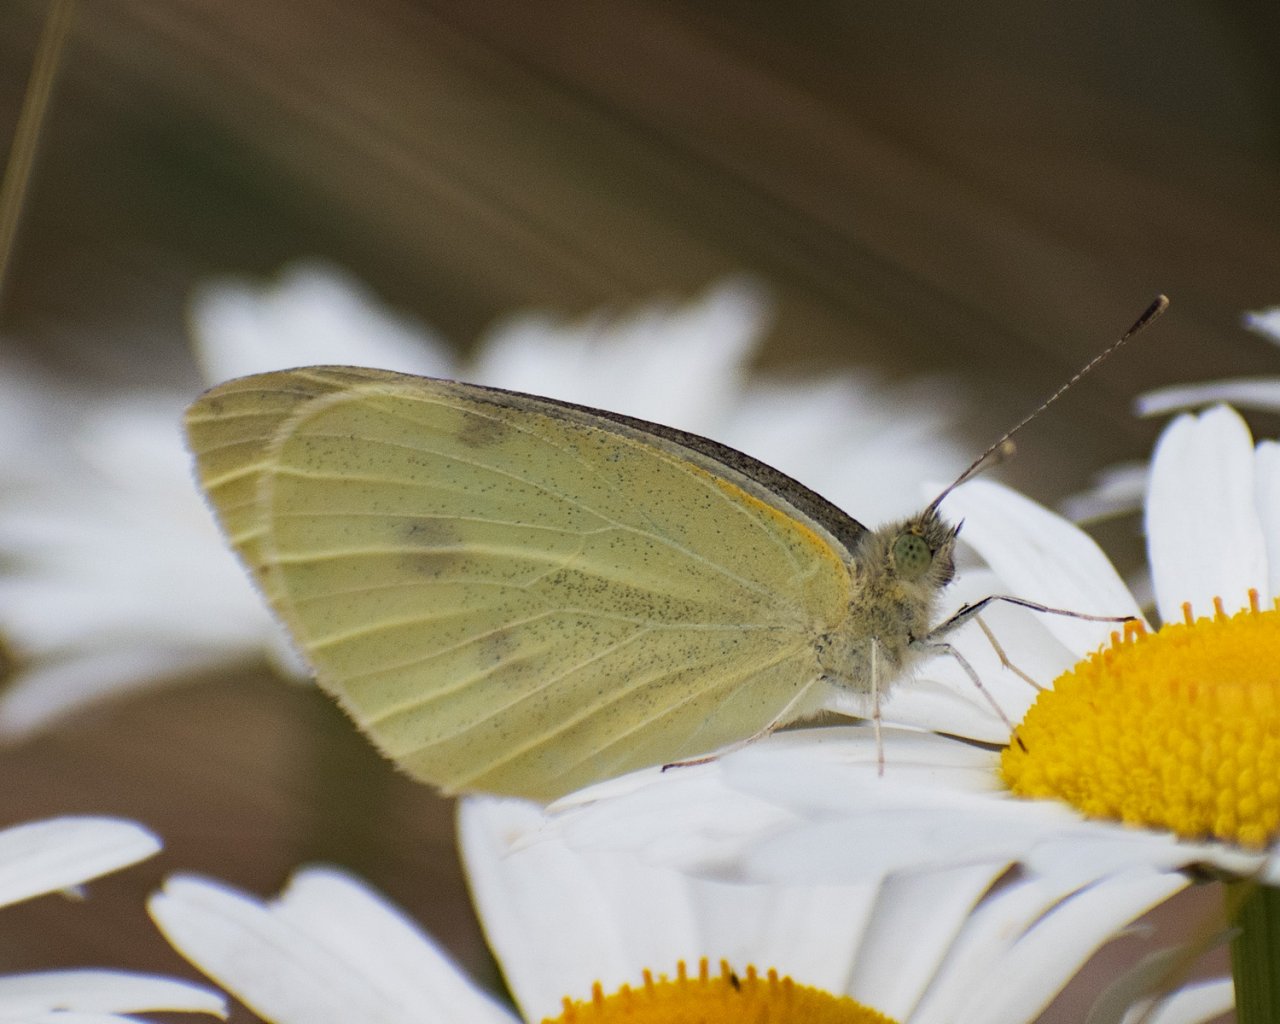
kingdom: Animalia
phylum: Arthropoda
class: Insecta
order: Lepidoptera
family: Pieridae
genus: Pieris
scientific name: Pieris rapae
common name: Cabbage White
